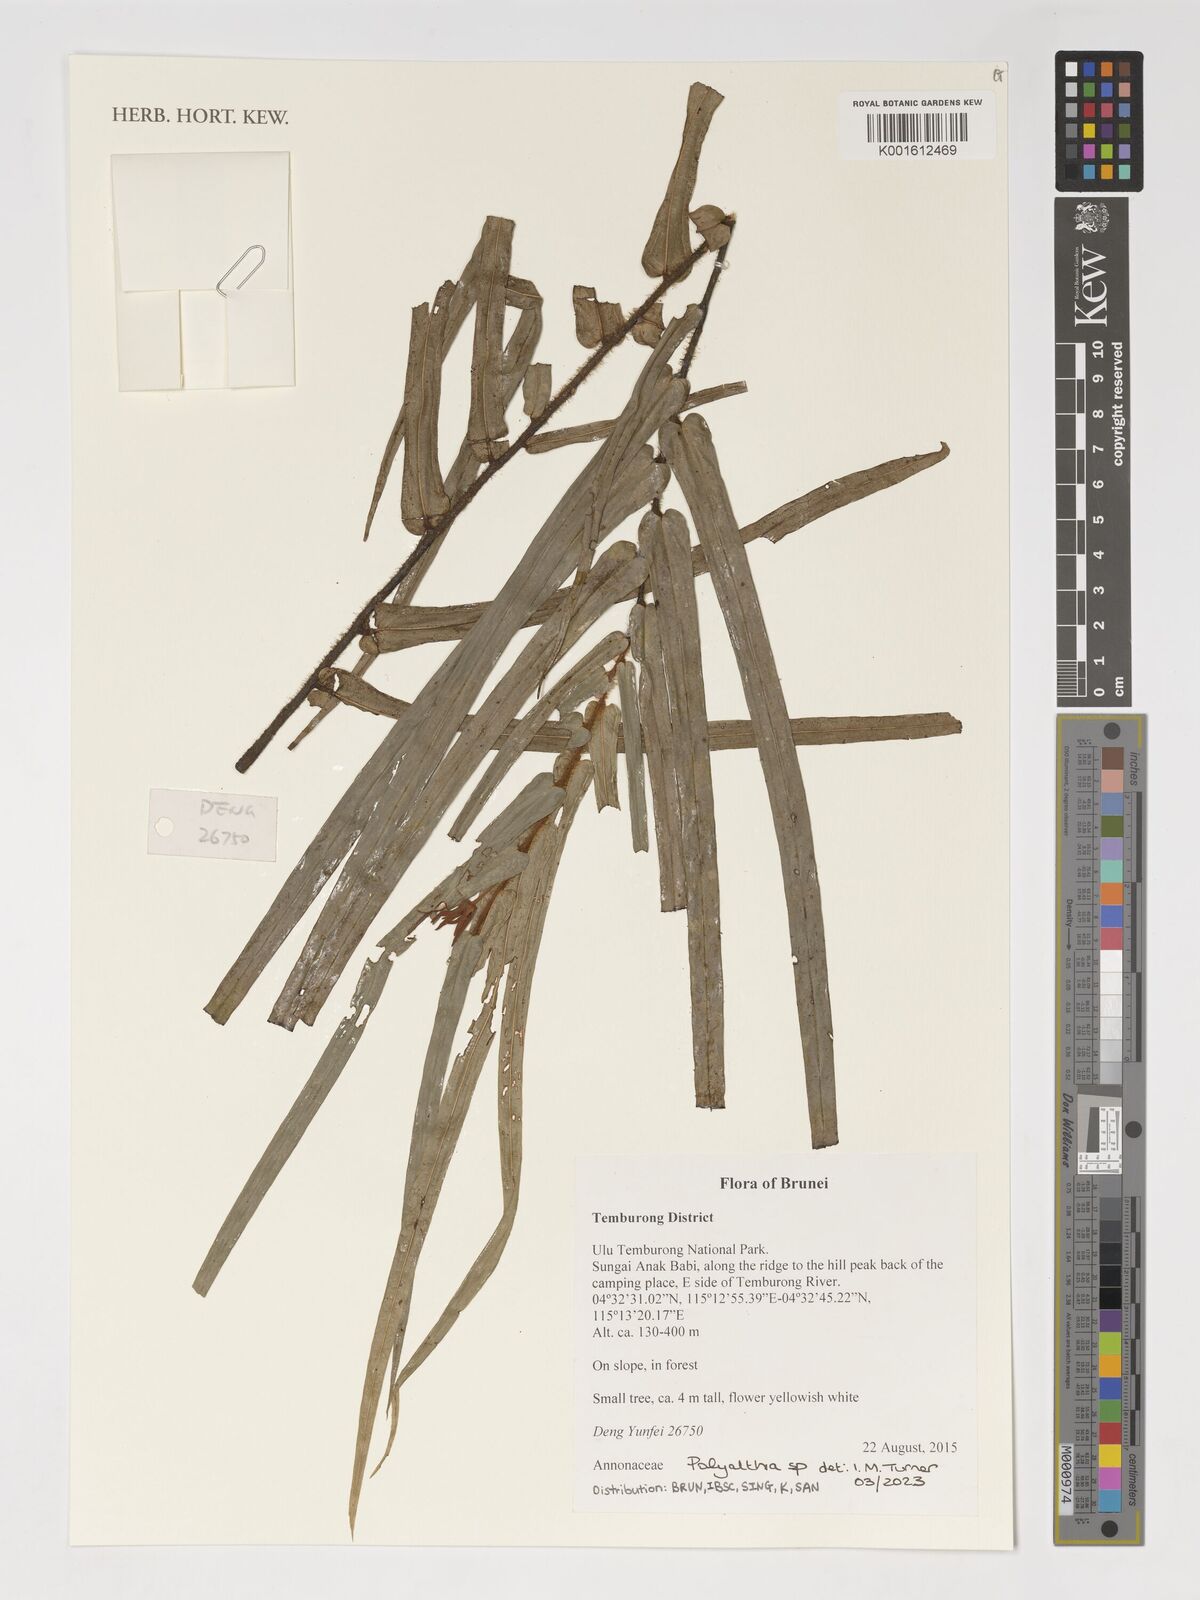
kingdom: Plantae
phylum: Tracheophyta
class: Magnoliopsida
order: Magnoliales
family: Annonaceae
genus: Polyalthia
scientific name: Polyalthia
